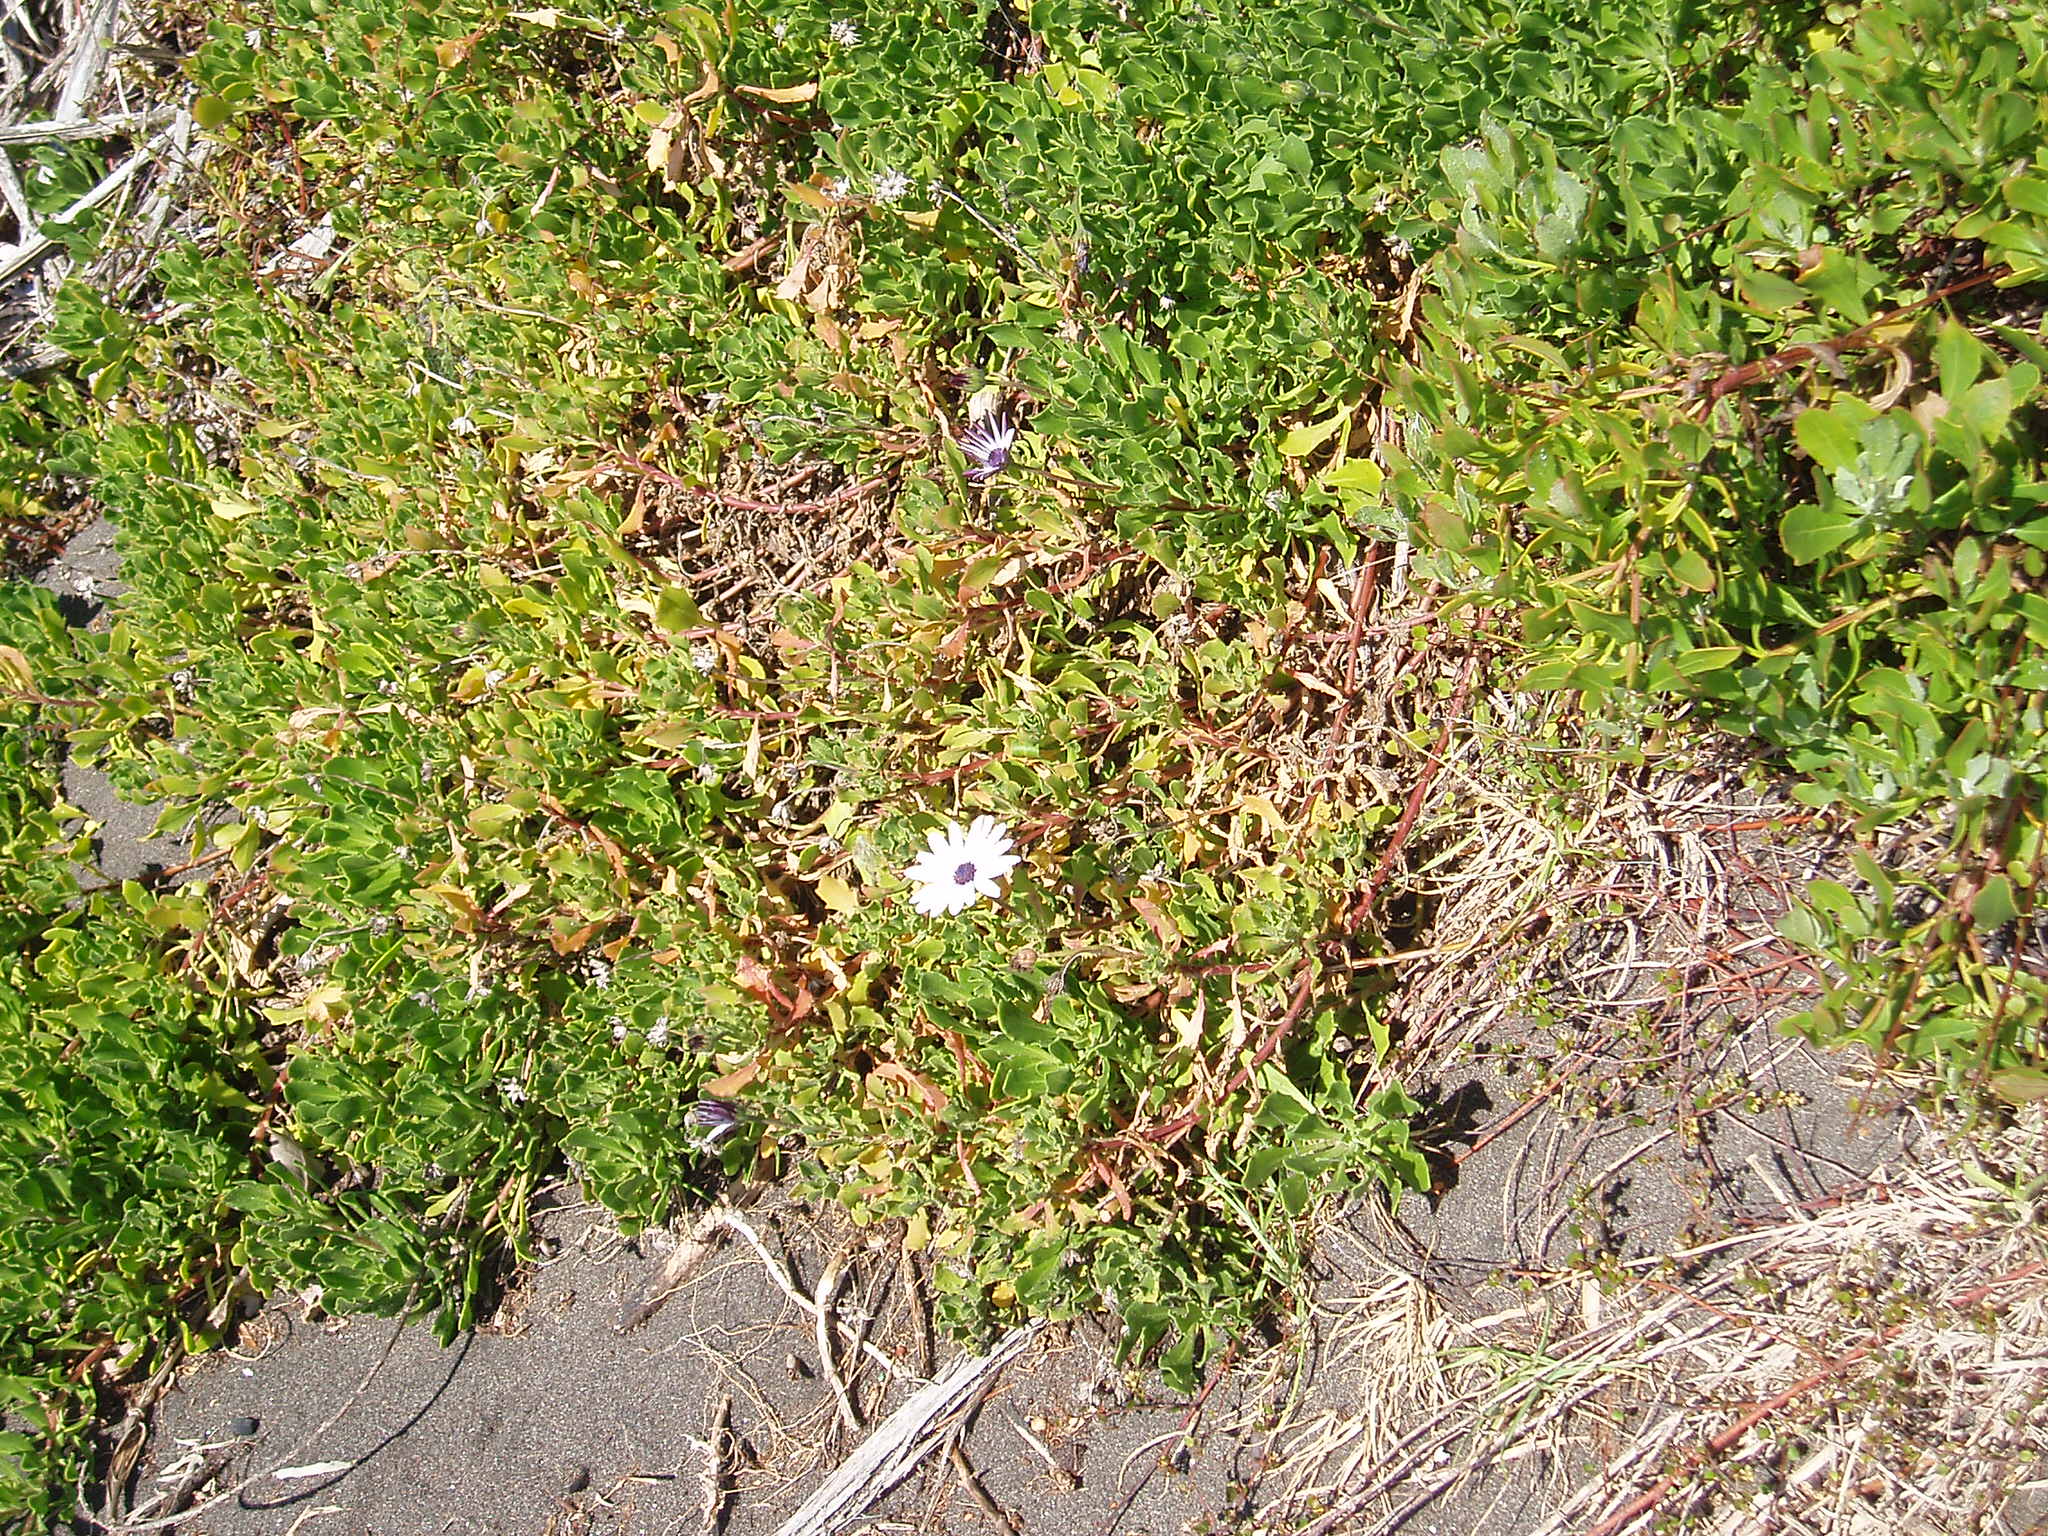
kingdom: Plantae
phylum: Tracheophyta
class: Magnoliopsida
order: Asterales
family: Asteraceae
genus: Osteospermum
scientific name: Osteospermum fruticosum
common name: Shrubby daisybush
